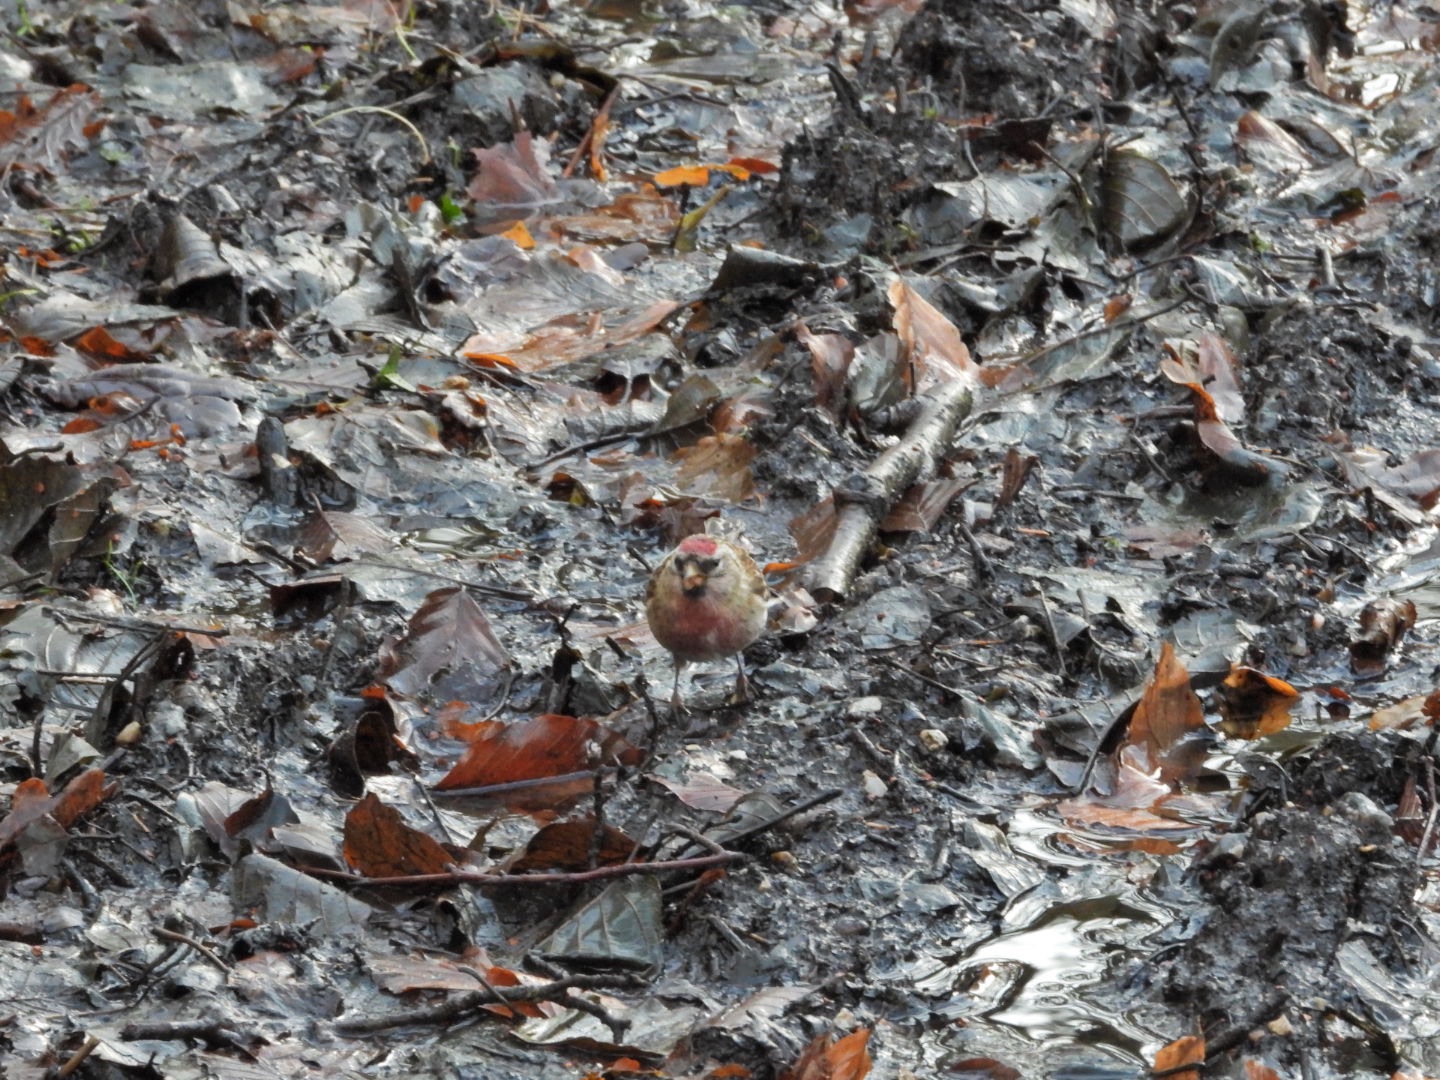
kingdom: Animalia
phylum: Chordata
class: Aves
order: Passeriformes
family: Fringillidae
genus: Acanthis
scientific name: Acanthis flammea
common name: Nordlig gråsisken
